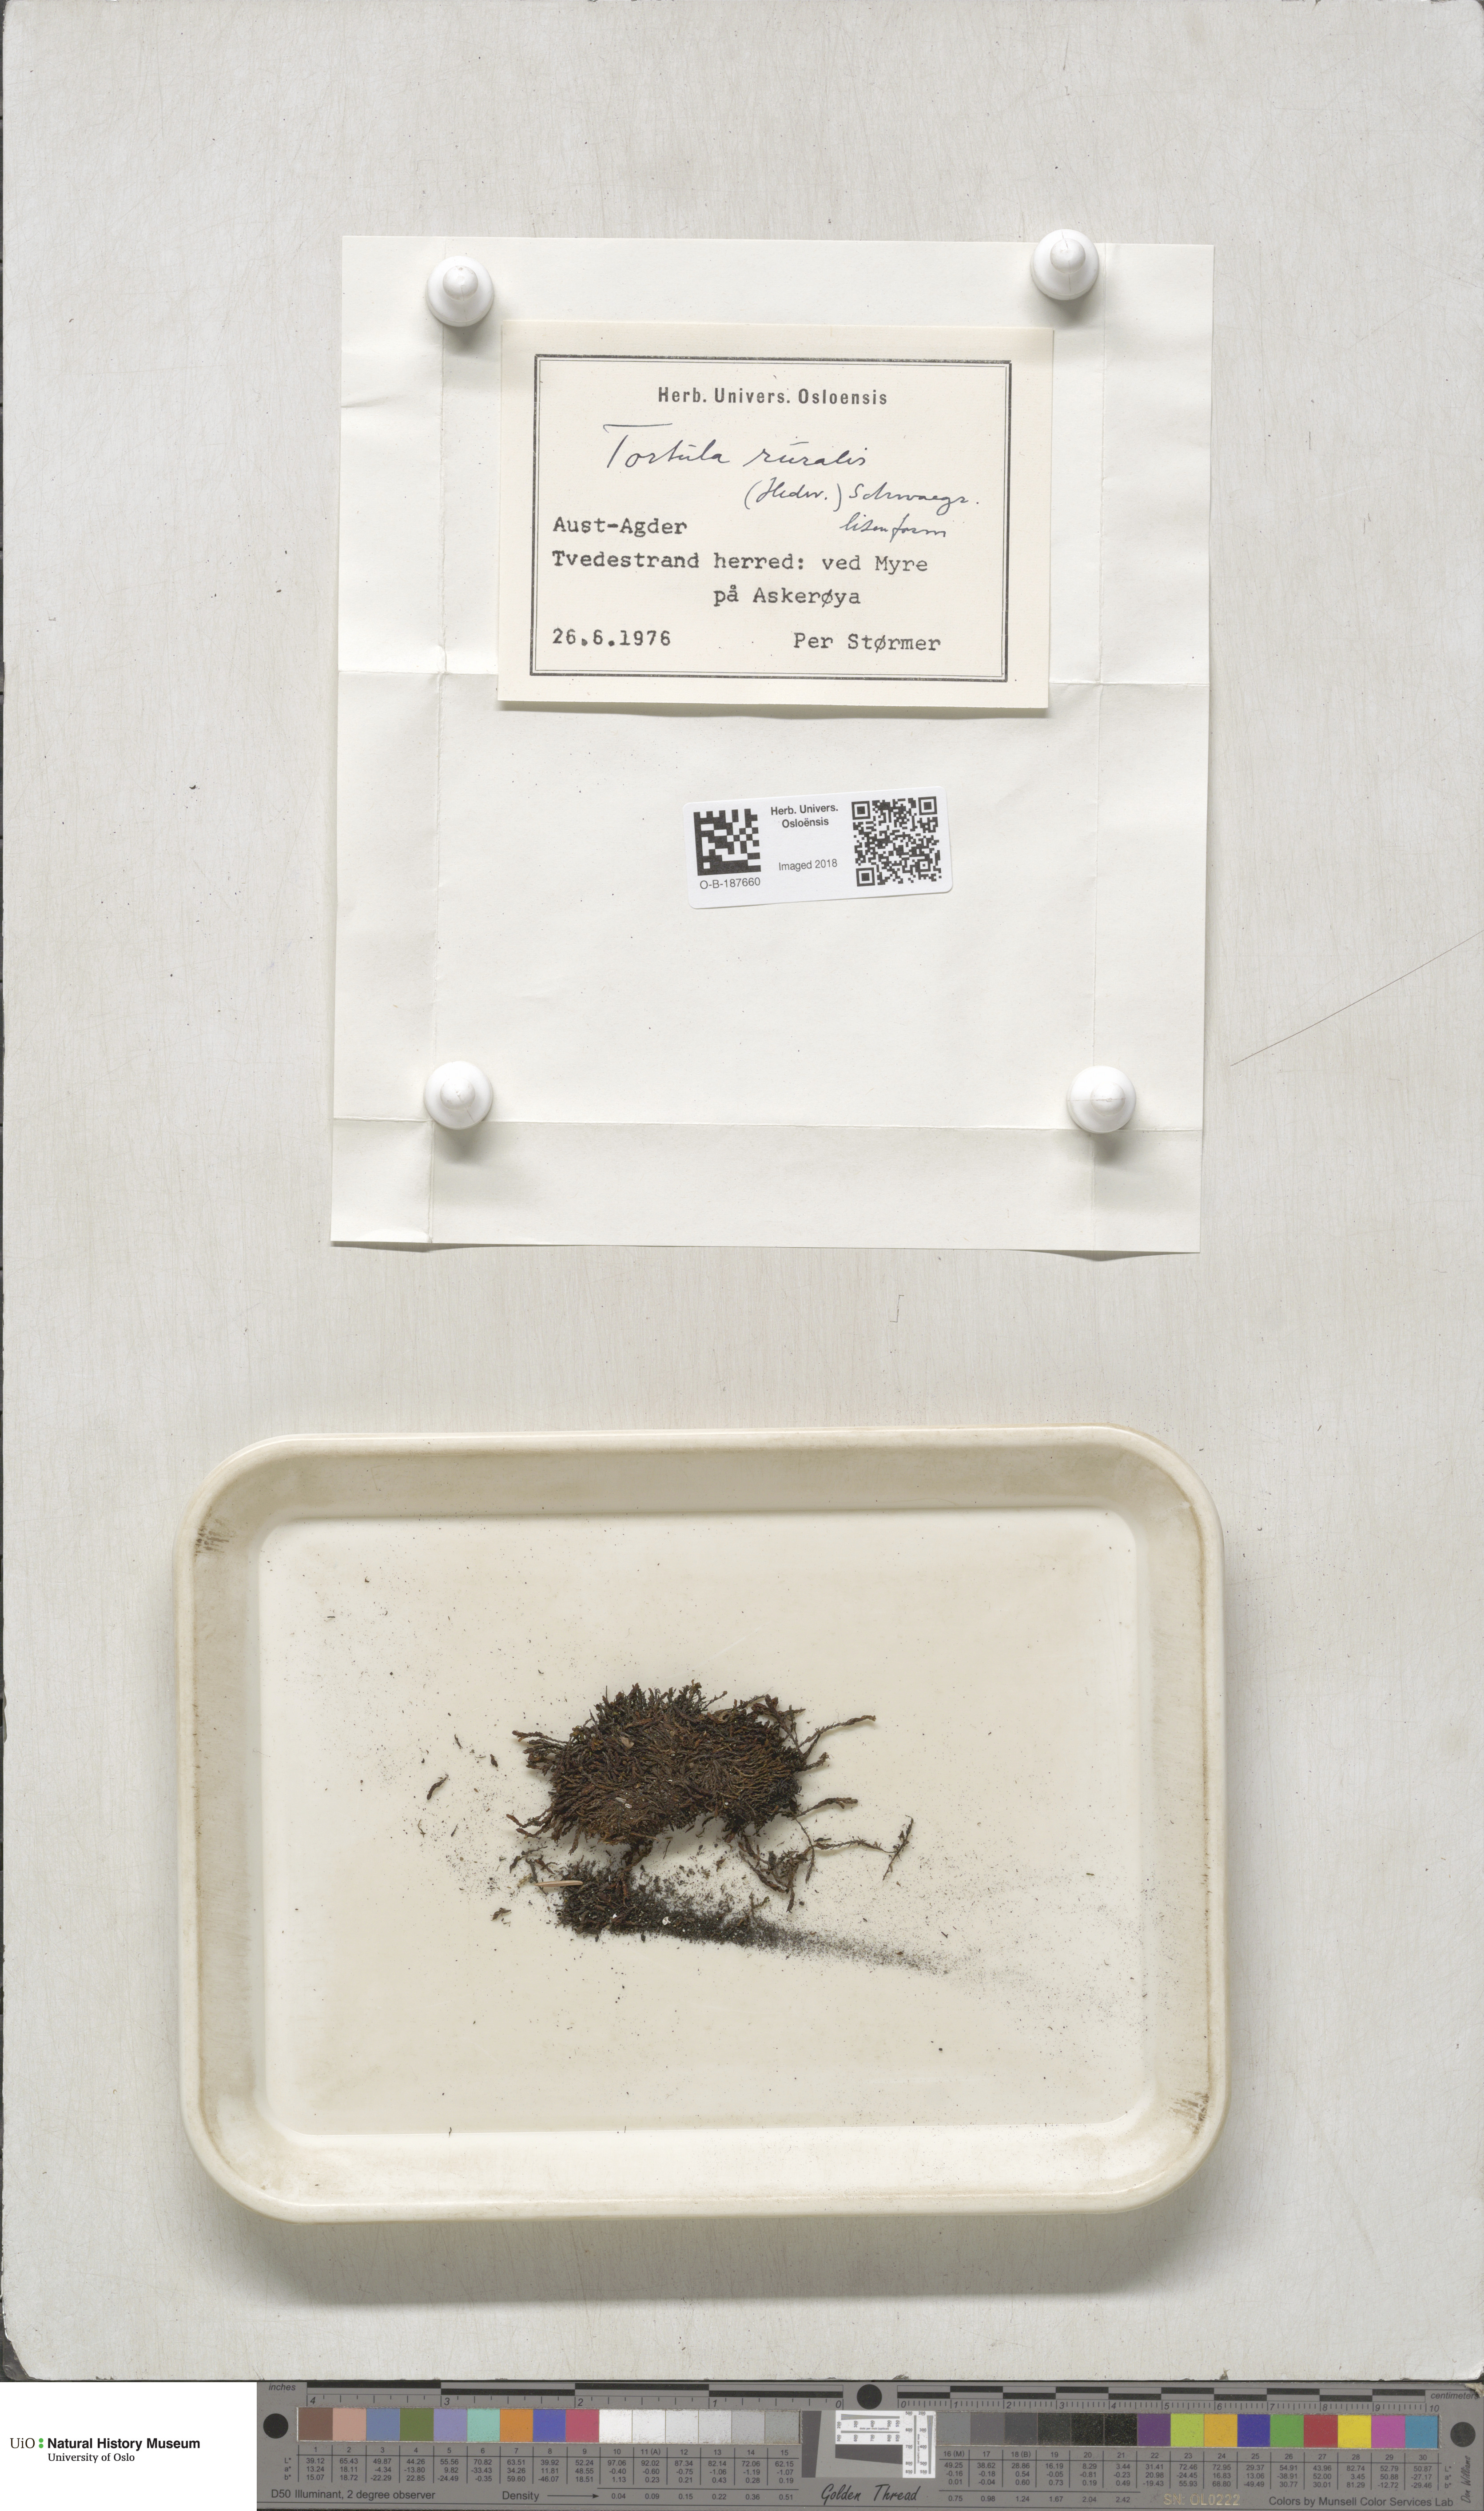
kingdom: Plantae
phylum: Bryophyta
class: Bryopsida
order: Pottiales
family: Pottiaceae
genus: Syntrichia
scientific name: Syntrichia ruralis
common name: Sidewalk screw moss
